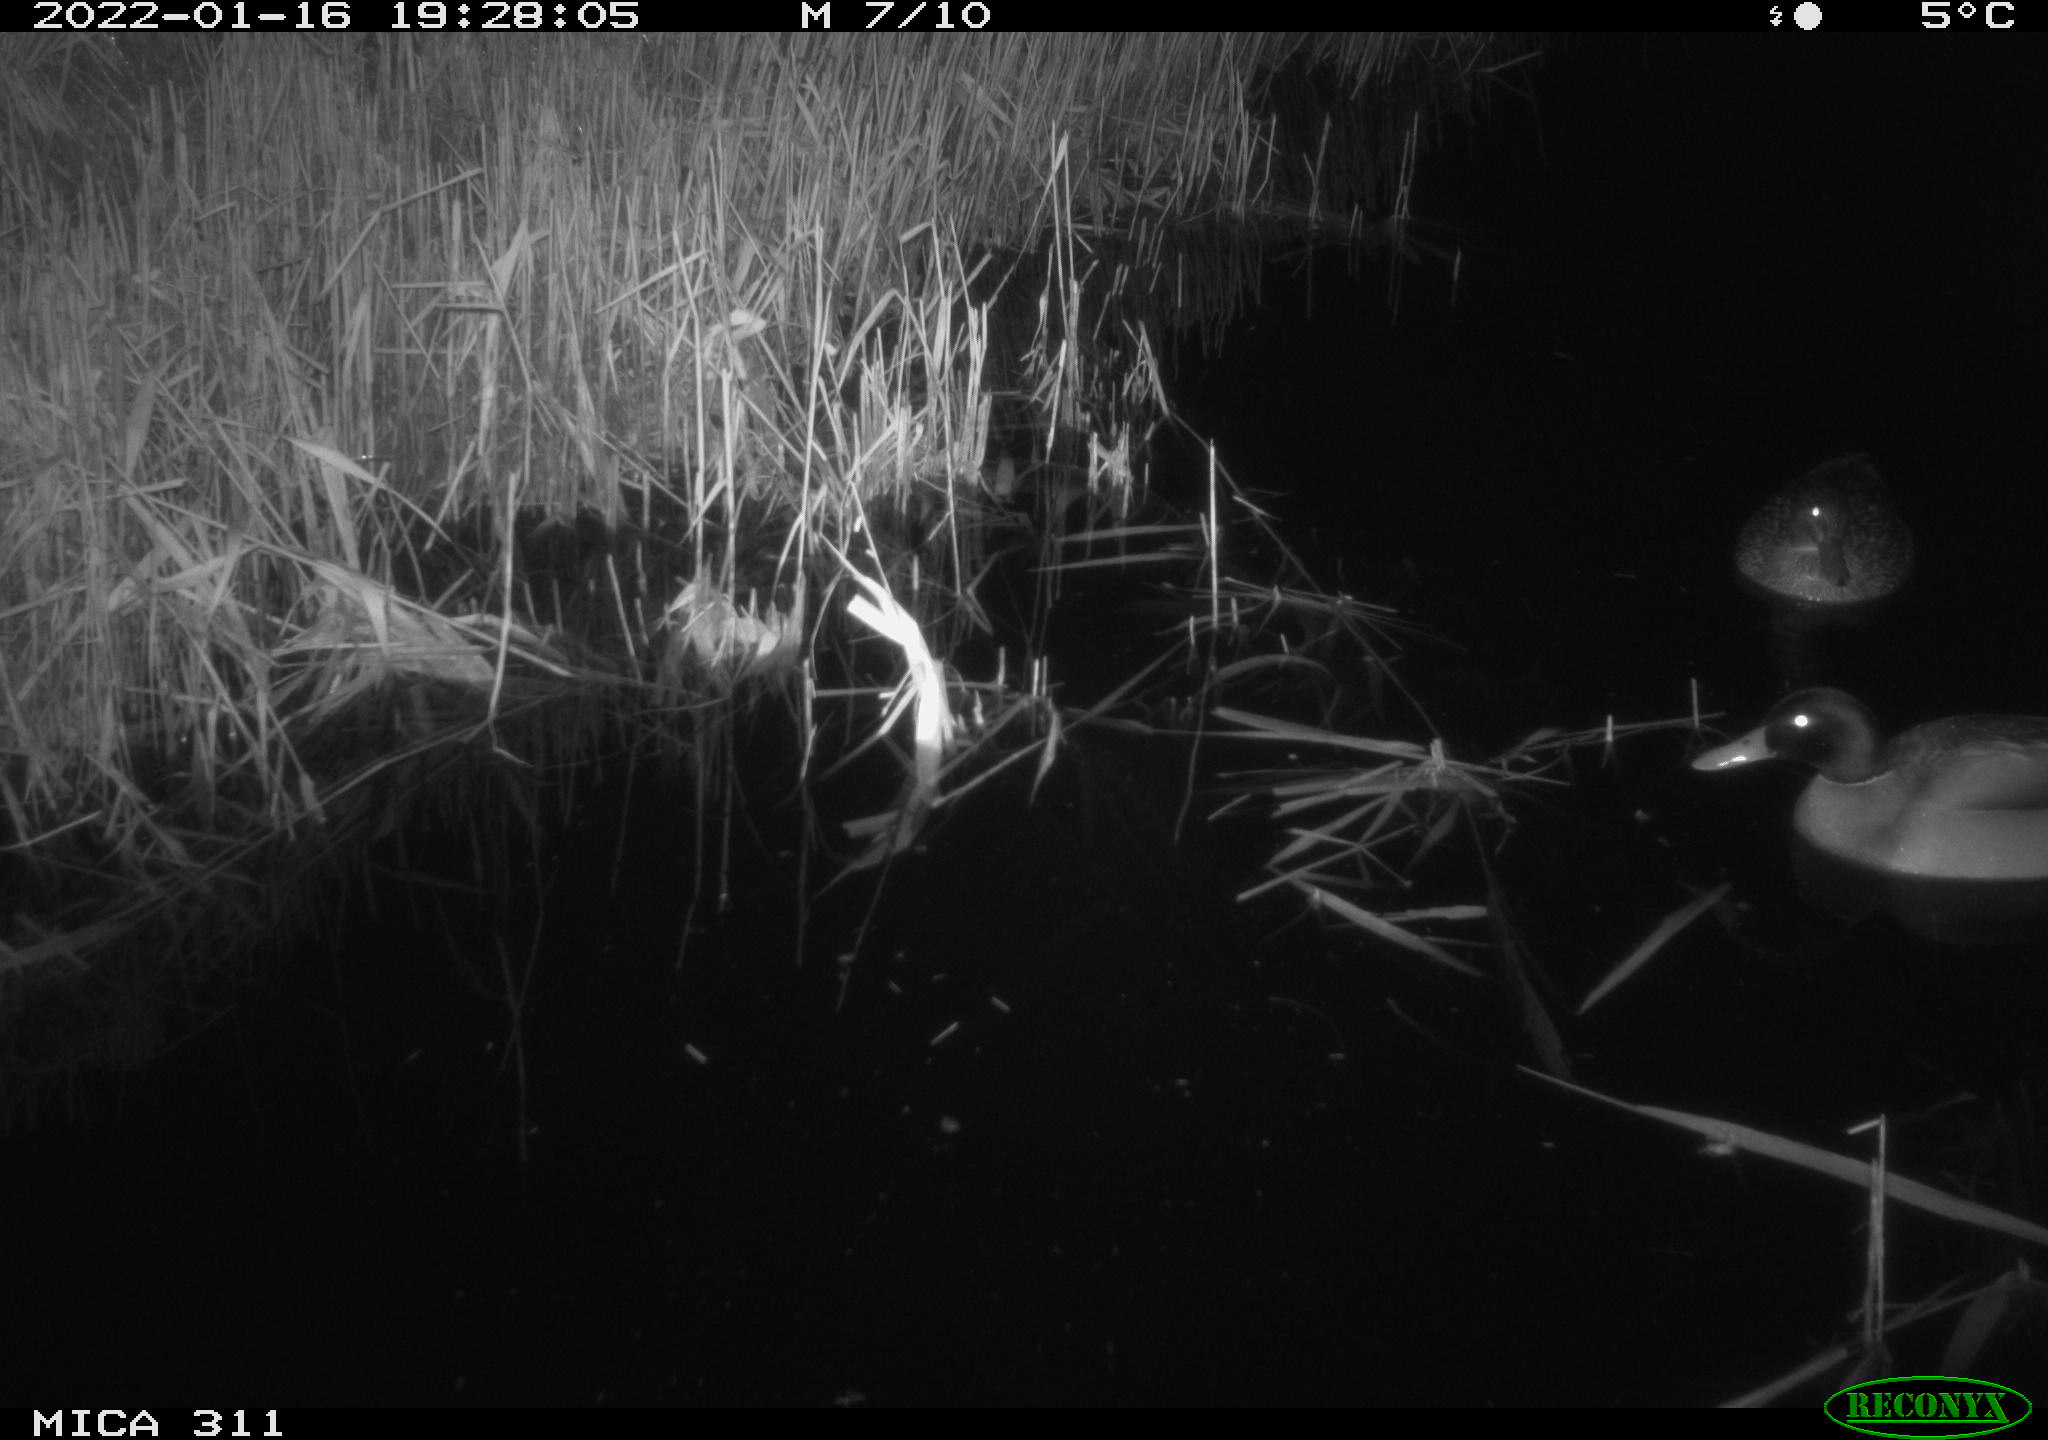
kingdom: Animalia
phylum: Chordata
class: Aves
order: Anseriformes
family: Anatidae
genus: Anas
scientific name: Anas
